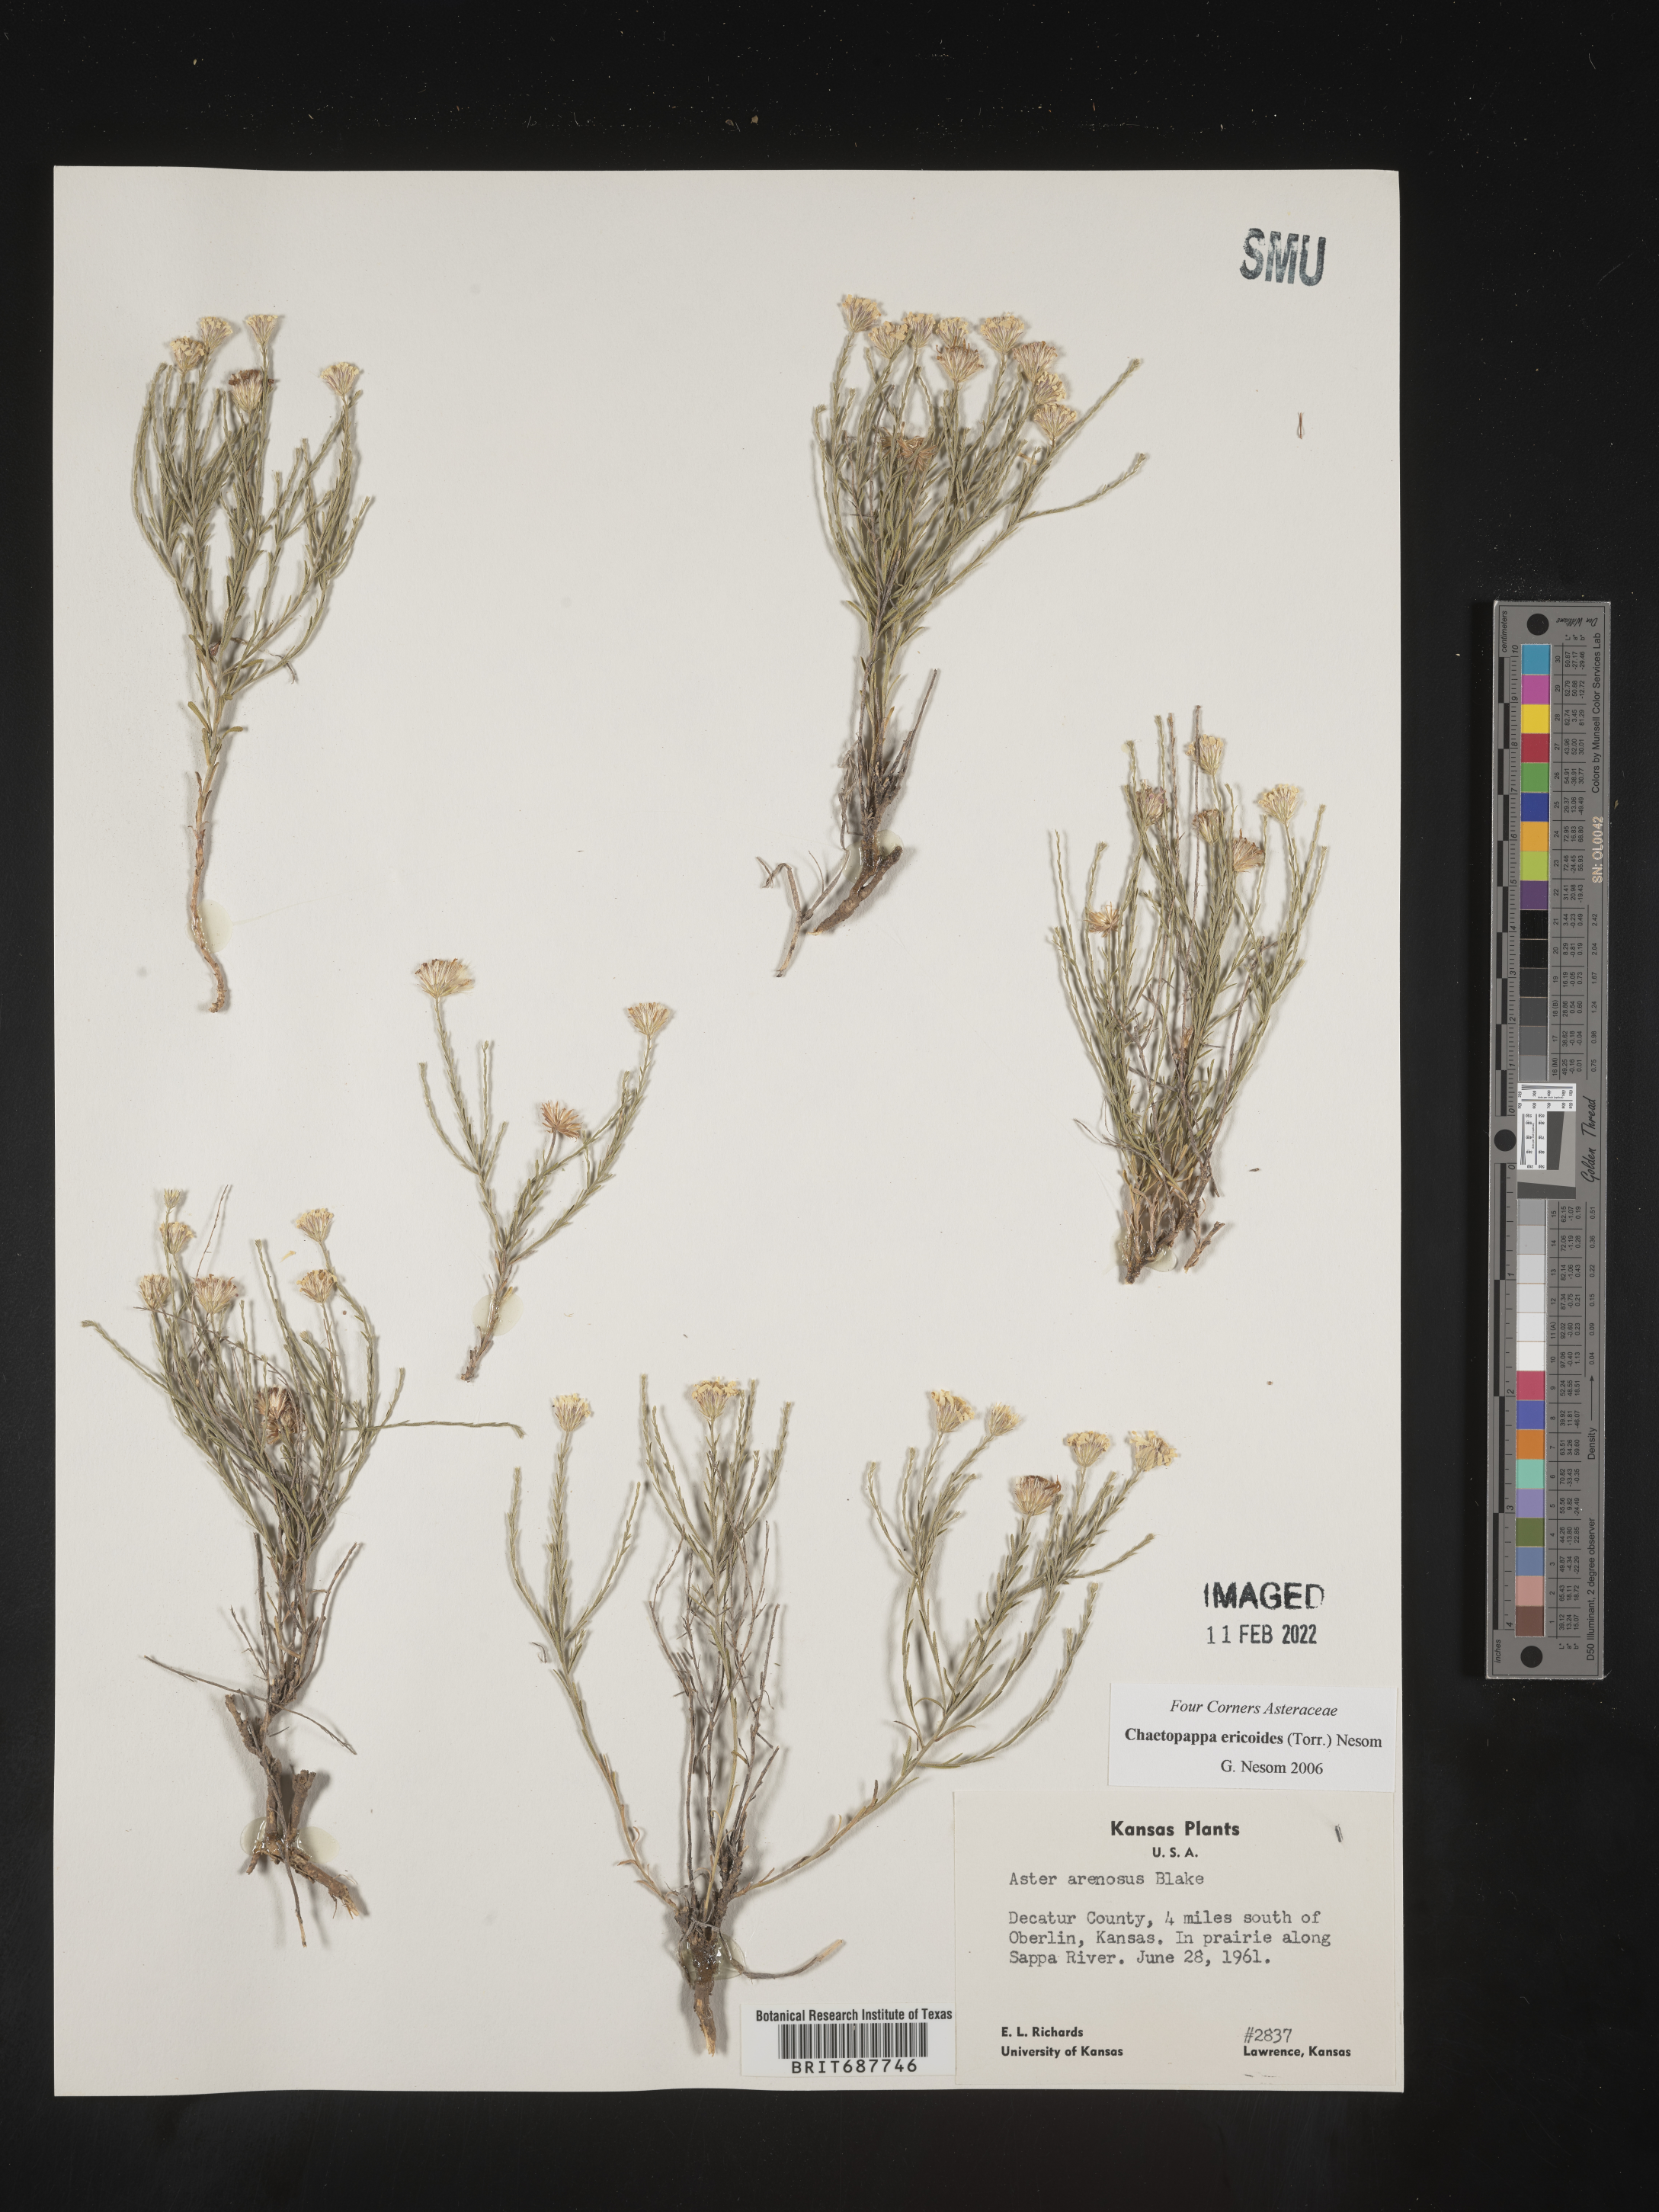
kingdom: Plantae
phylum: Tracheophyta
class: Magnoliopsida
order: Asterales
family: Asteraceae
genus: Chaetopappa
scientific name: Chaetopappa ericoides
